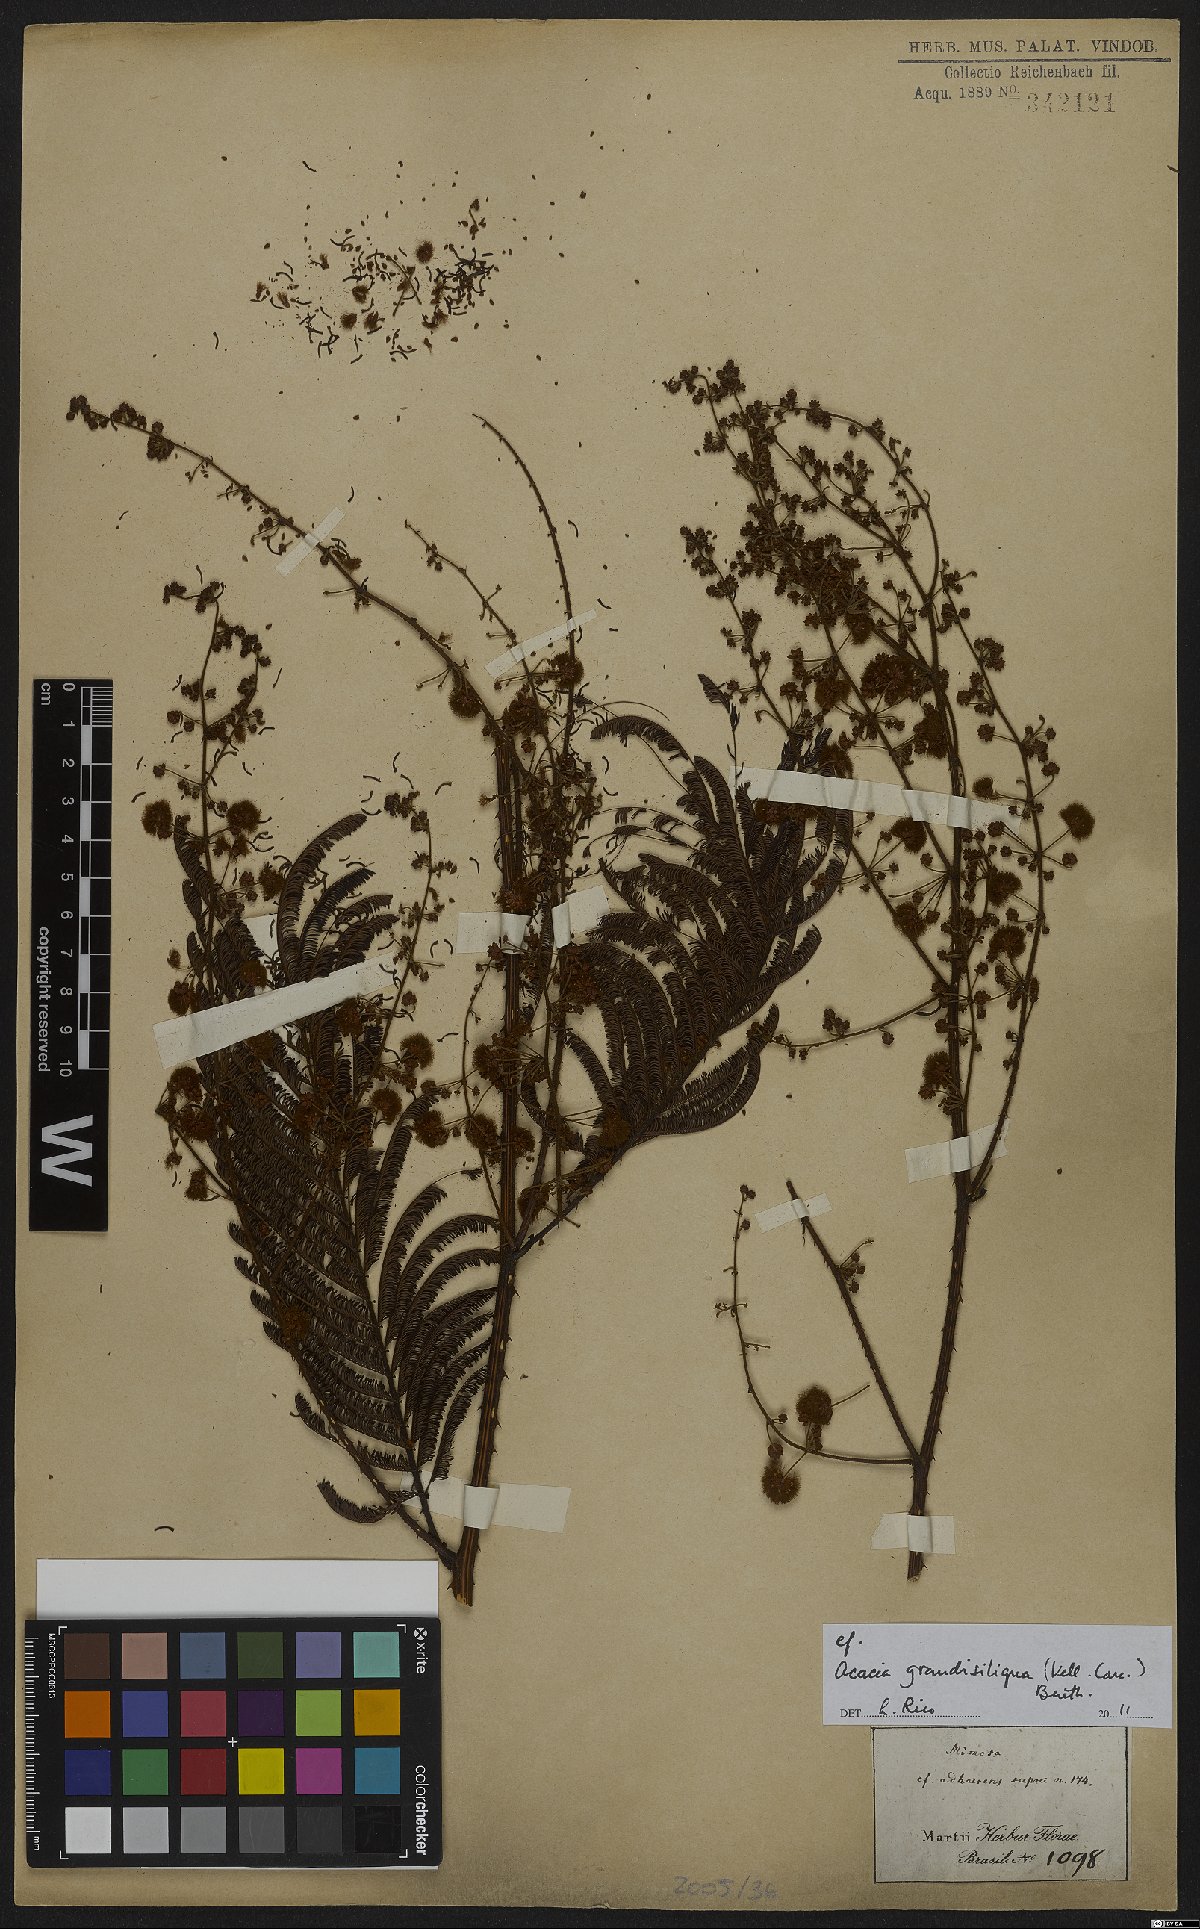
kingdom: Plantae
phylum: Tracheophyta
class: Magnoliopsida
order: Fabales
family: Fabaceae
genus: Senegalia
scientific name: Senegalia grandisiliqua
